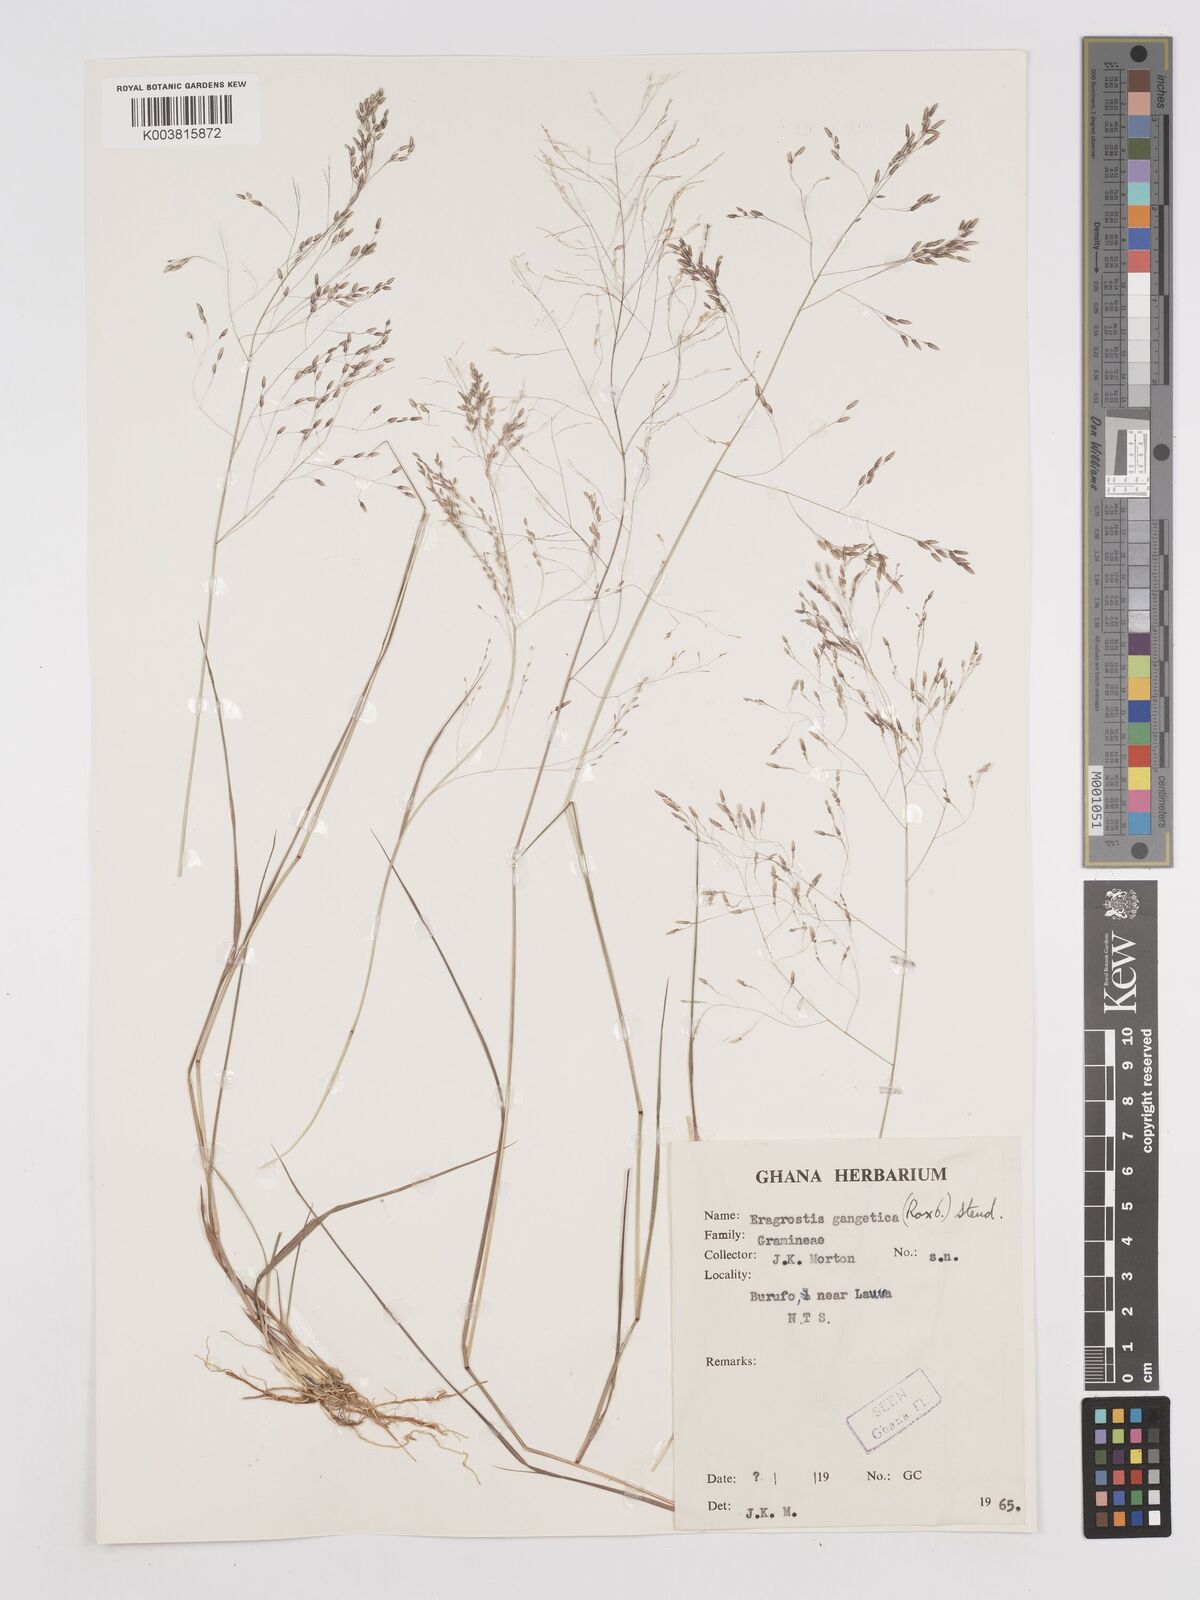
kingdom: Plantae
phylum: Tracheophyta
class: Liliopsida
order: Poales
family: Poaceae
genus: Eragrostis
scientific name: Eragrostis gangetica
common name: Slimflower lovegrass
